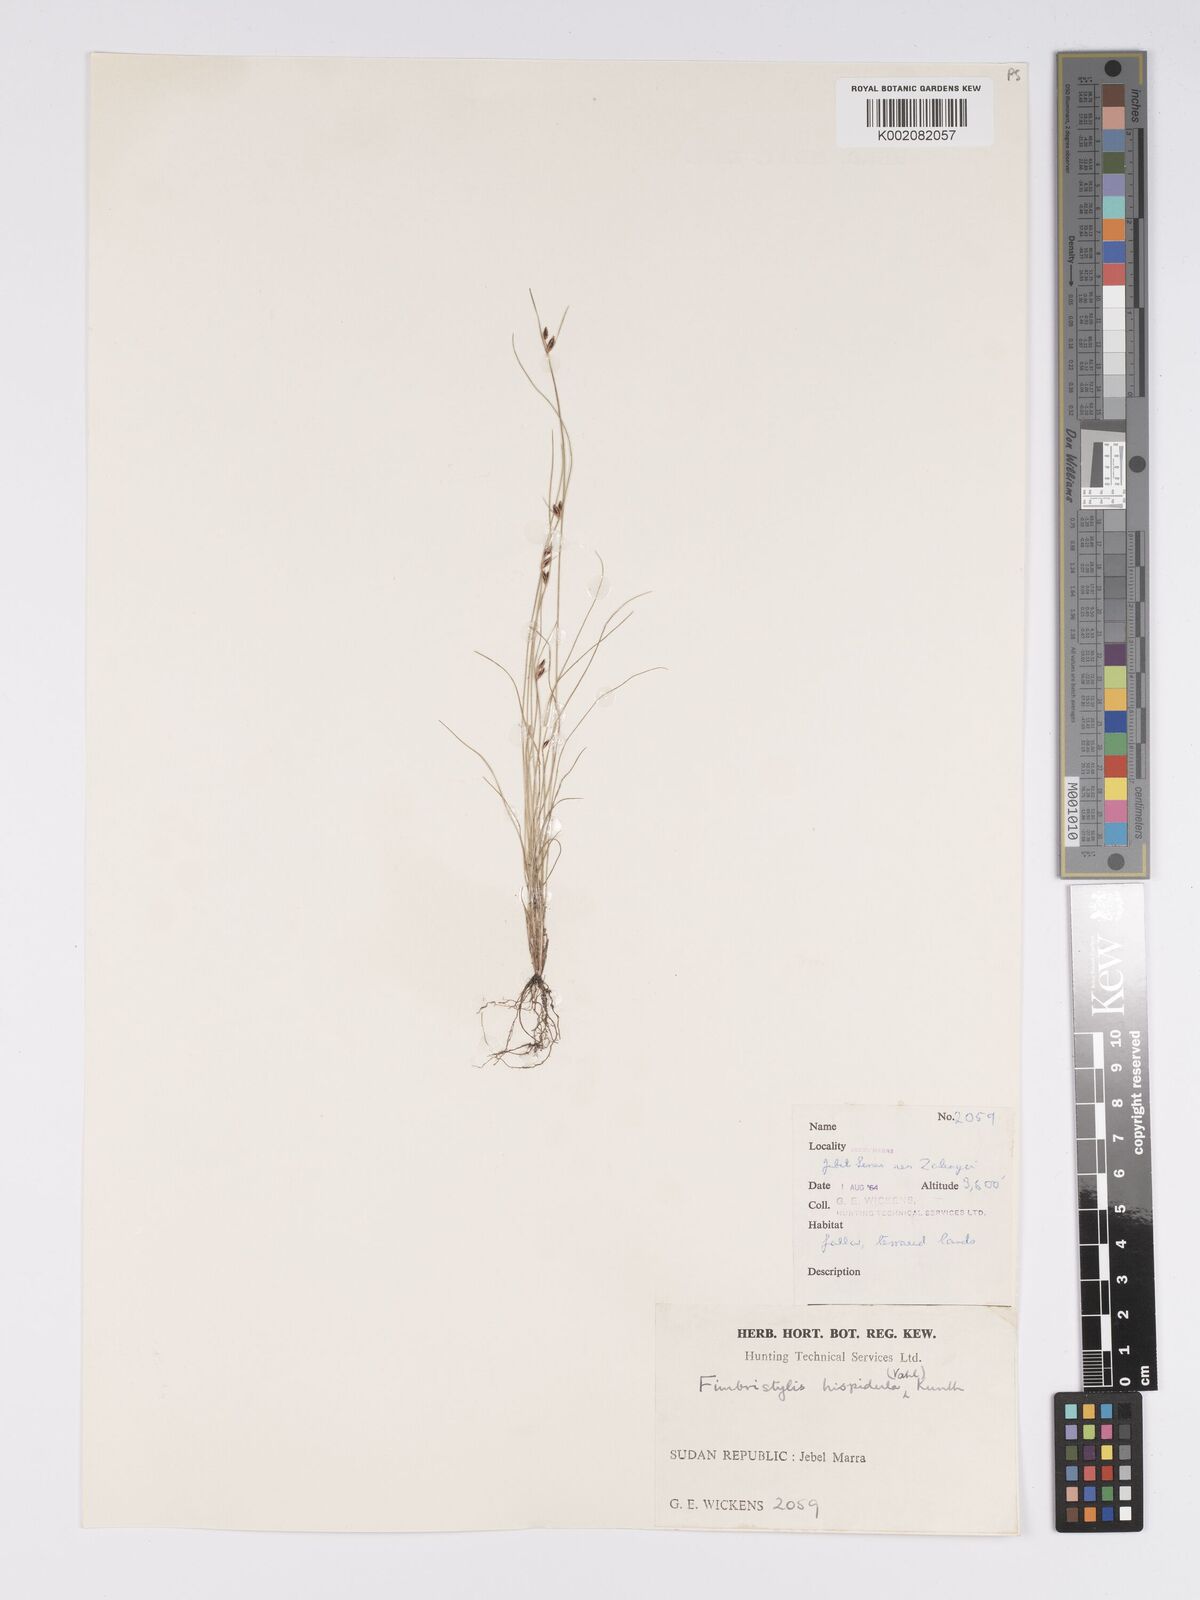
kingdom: Plantae
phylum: Tracheophyta
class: Liliopsida
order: Poales
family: Cyperaceae
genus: Bulbostylis
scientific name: Bulbostylis hispidula
